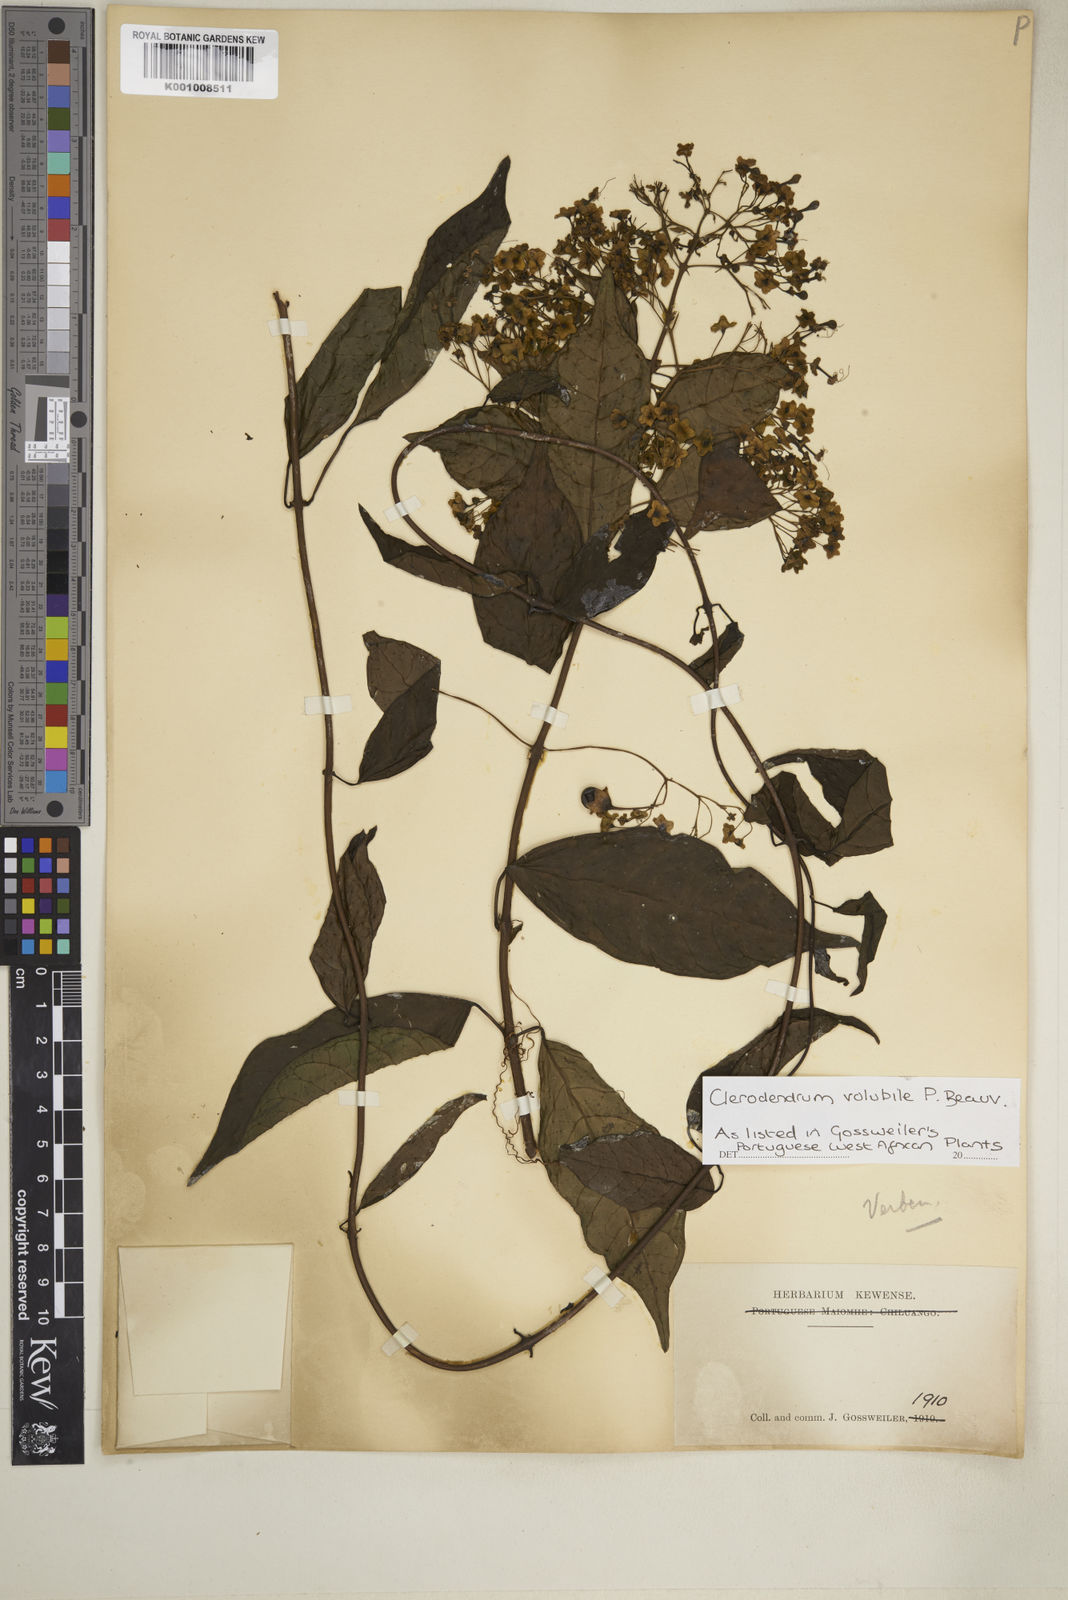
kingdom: Plantae
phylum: Tracheophyta
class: Magnoliopsida
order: Lamiales
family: Lamiaceae
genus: Clerodendrum
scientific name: Clerodendrum volubile
